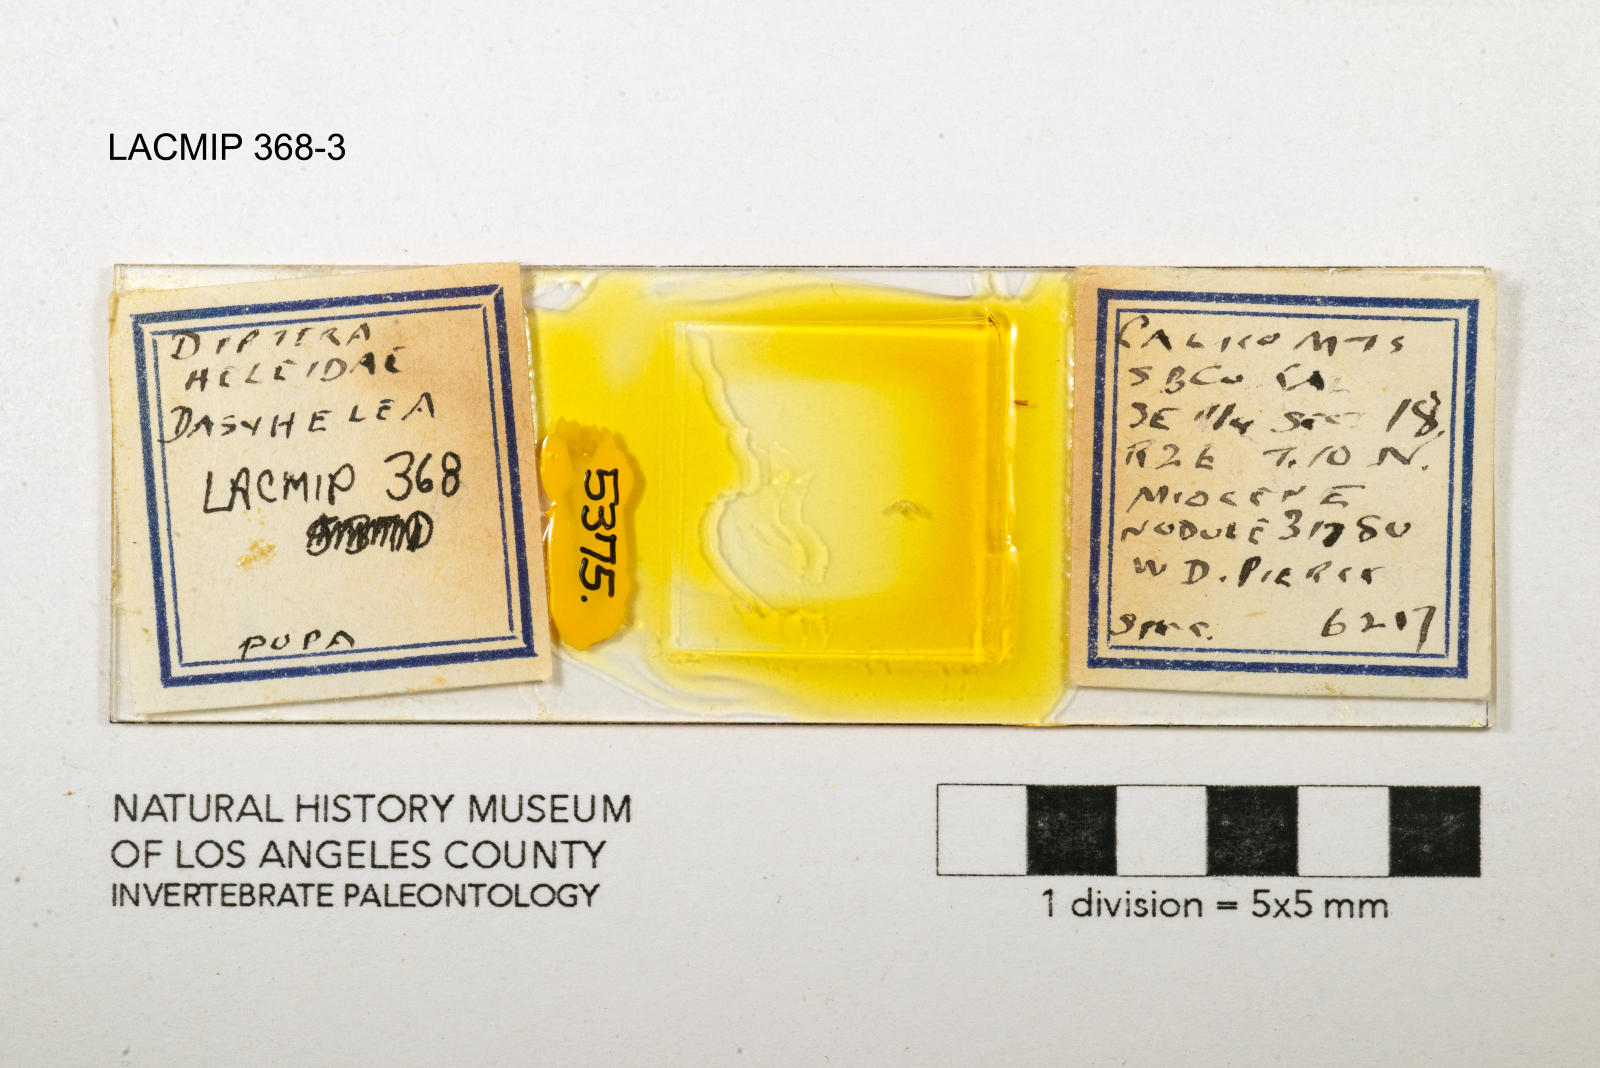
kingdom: Animalia
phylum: Arthropoda
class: Insecta
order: Diptera
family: Ceratopogonidae
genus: Dasyhelea
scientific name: Dasyhelea kanakoffi
